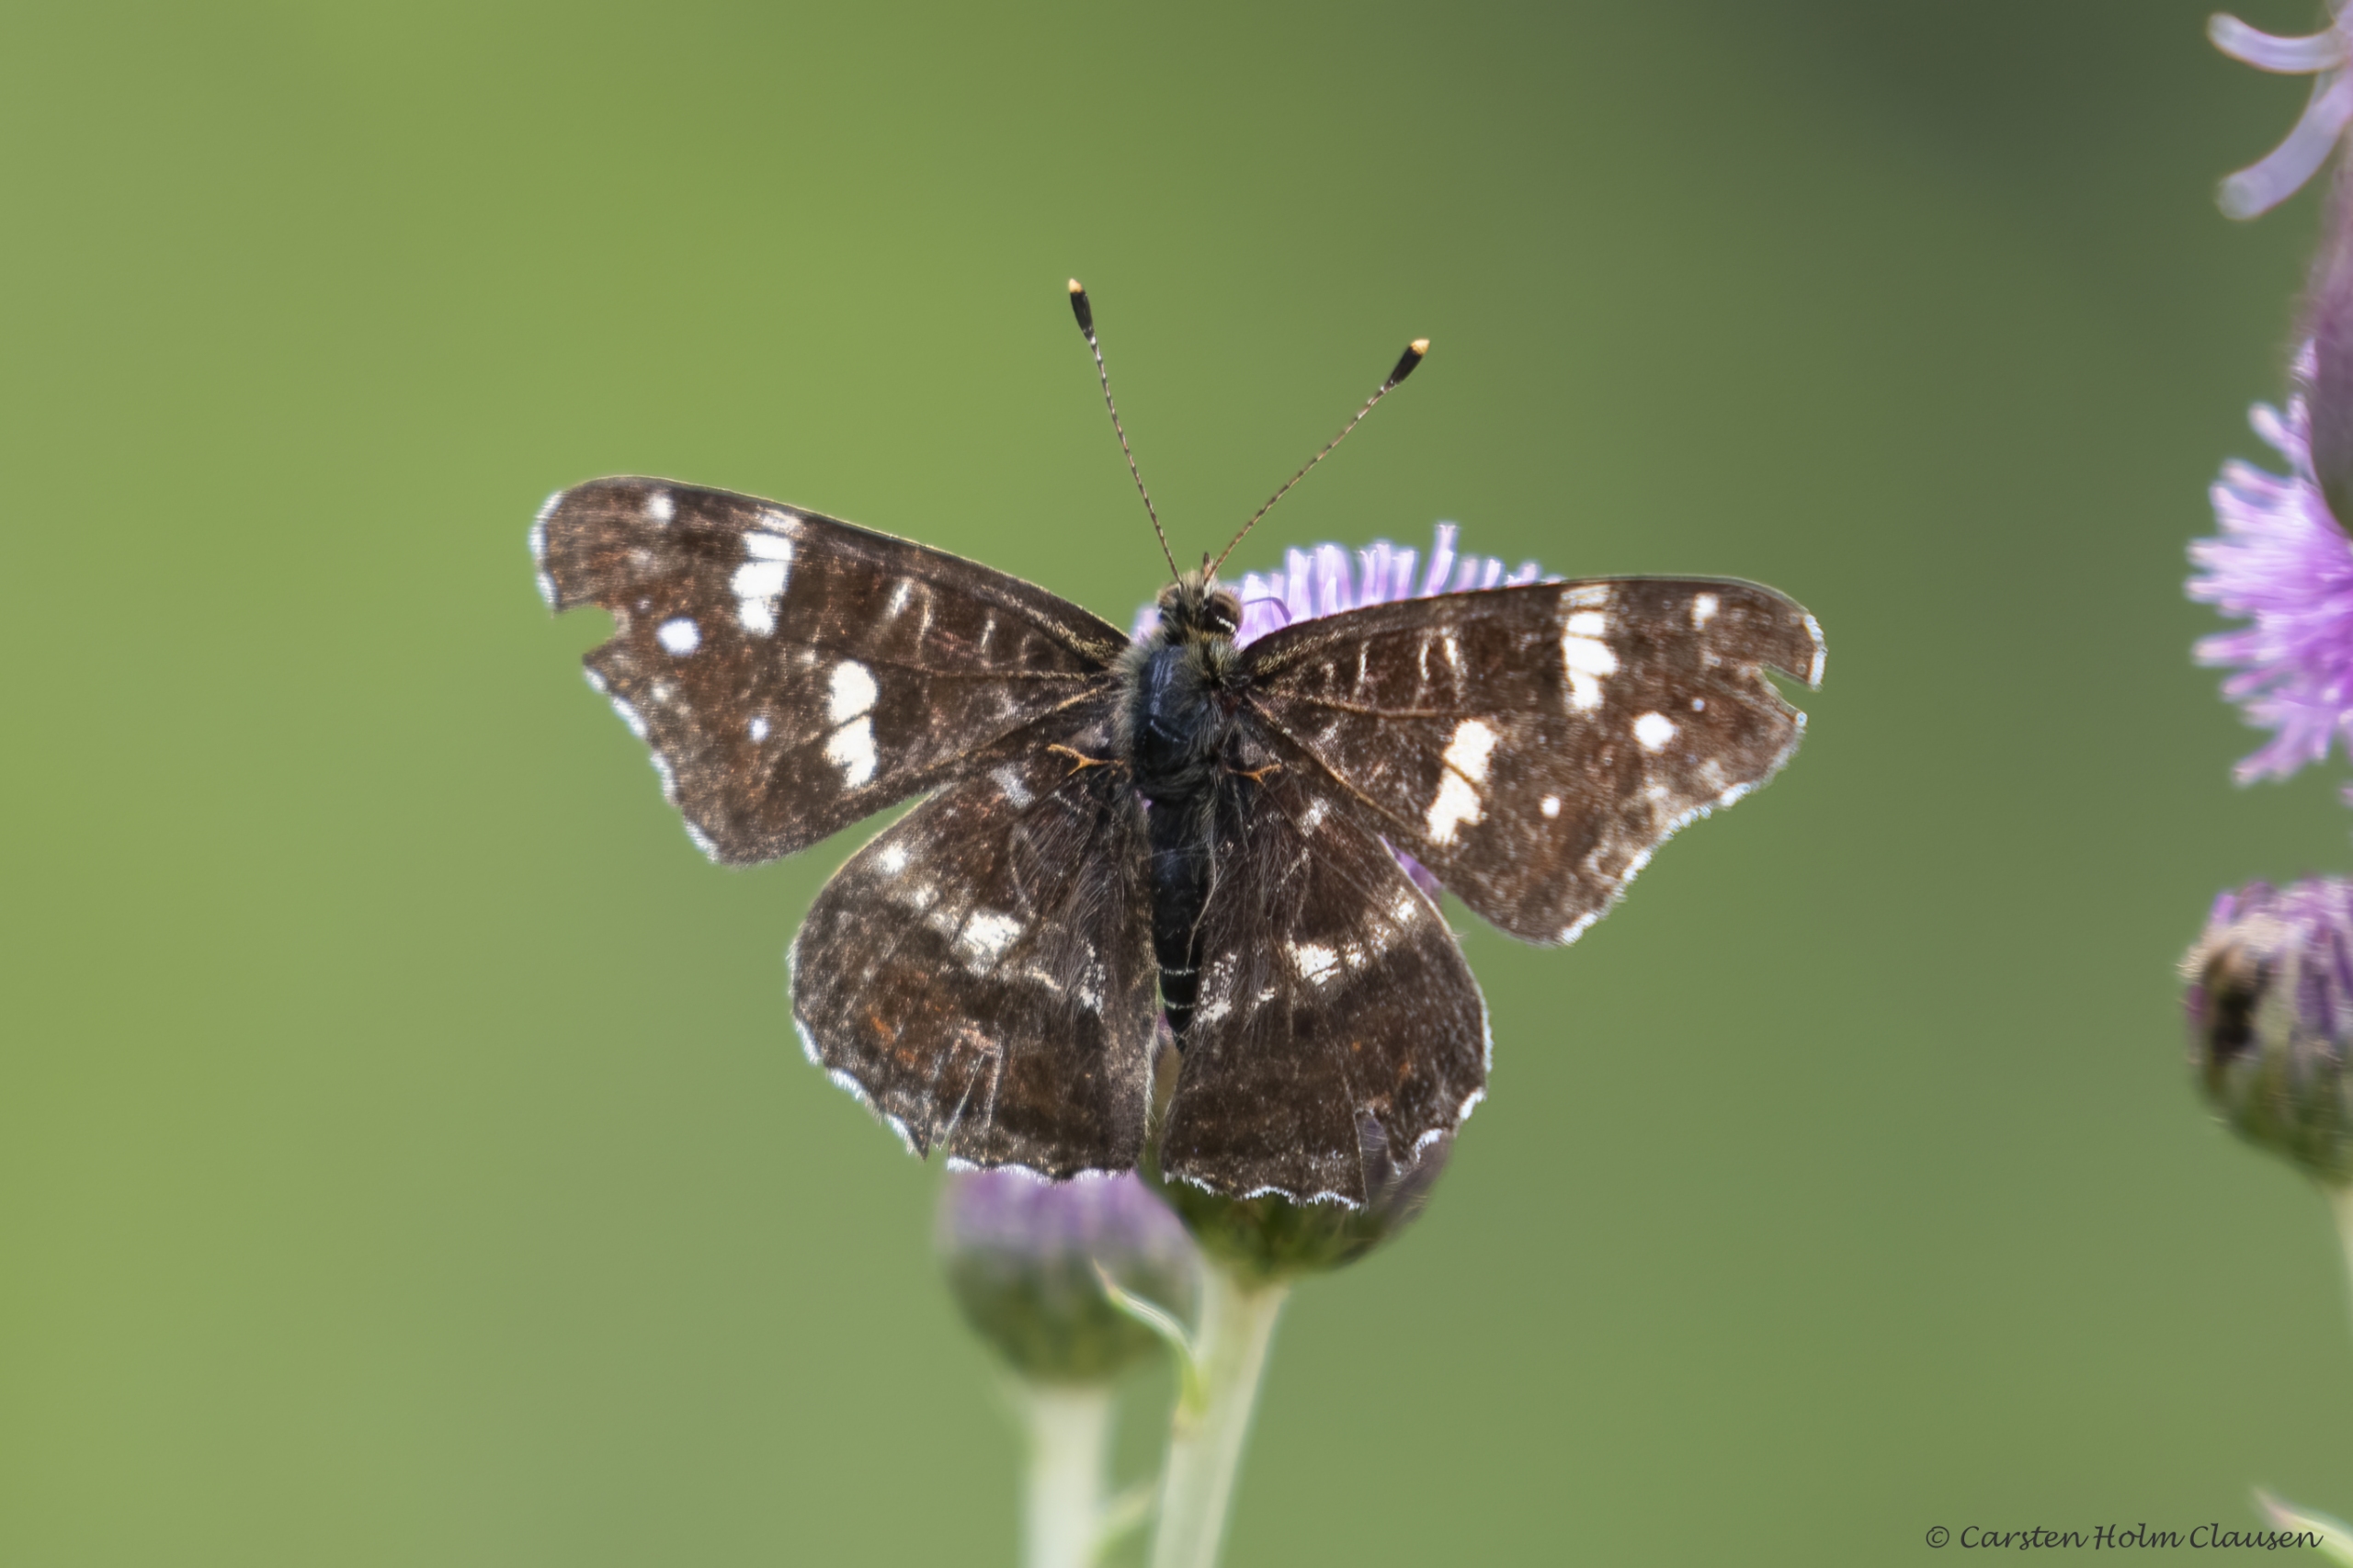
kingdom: Animalia
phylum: Arthropoda
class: Insecta
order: Lepidoptera
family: Nymphalidae
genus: Araschnia
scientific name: Araschnia levana
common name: Nældesommerfugl
